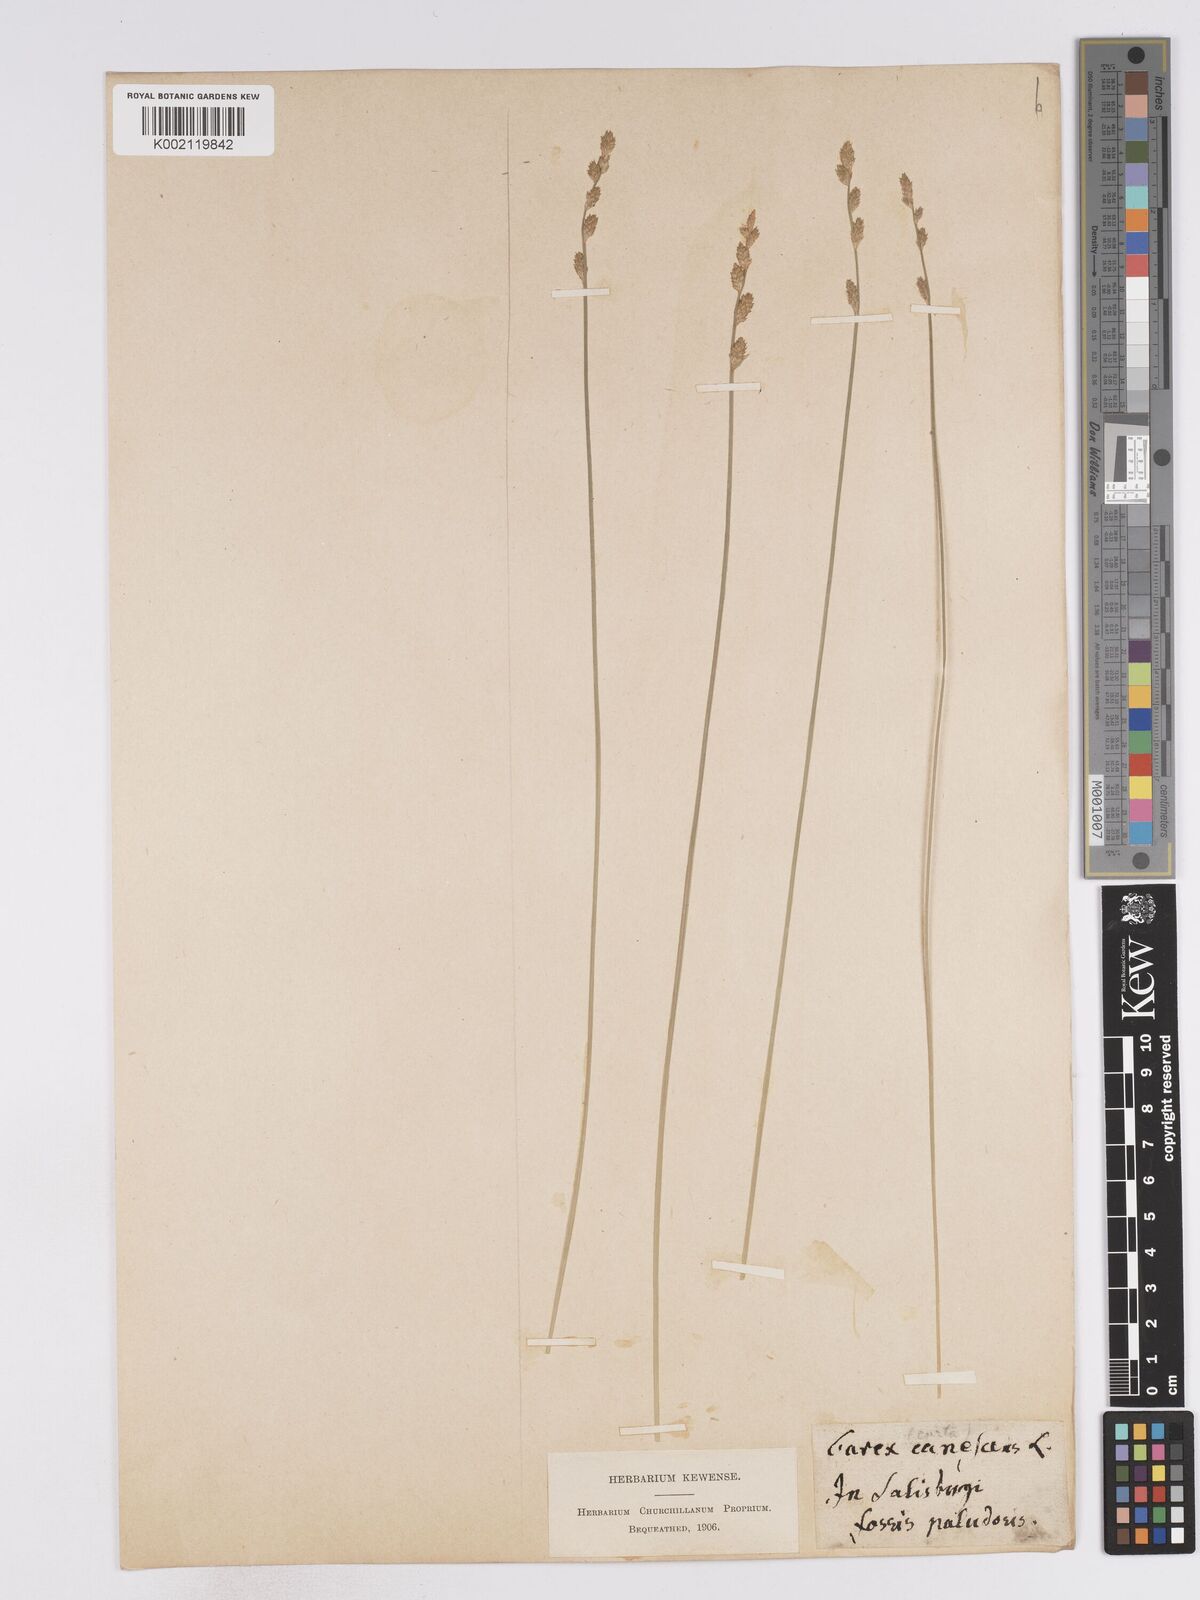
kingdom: Plantae
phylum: Tracheophyta
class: Liliopsida
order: Poales
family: Cyperaceae
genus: Carex
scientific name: Carex curta
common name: White sedge
